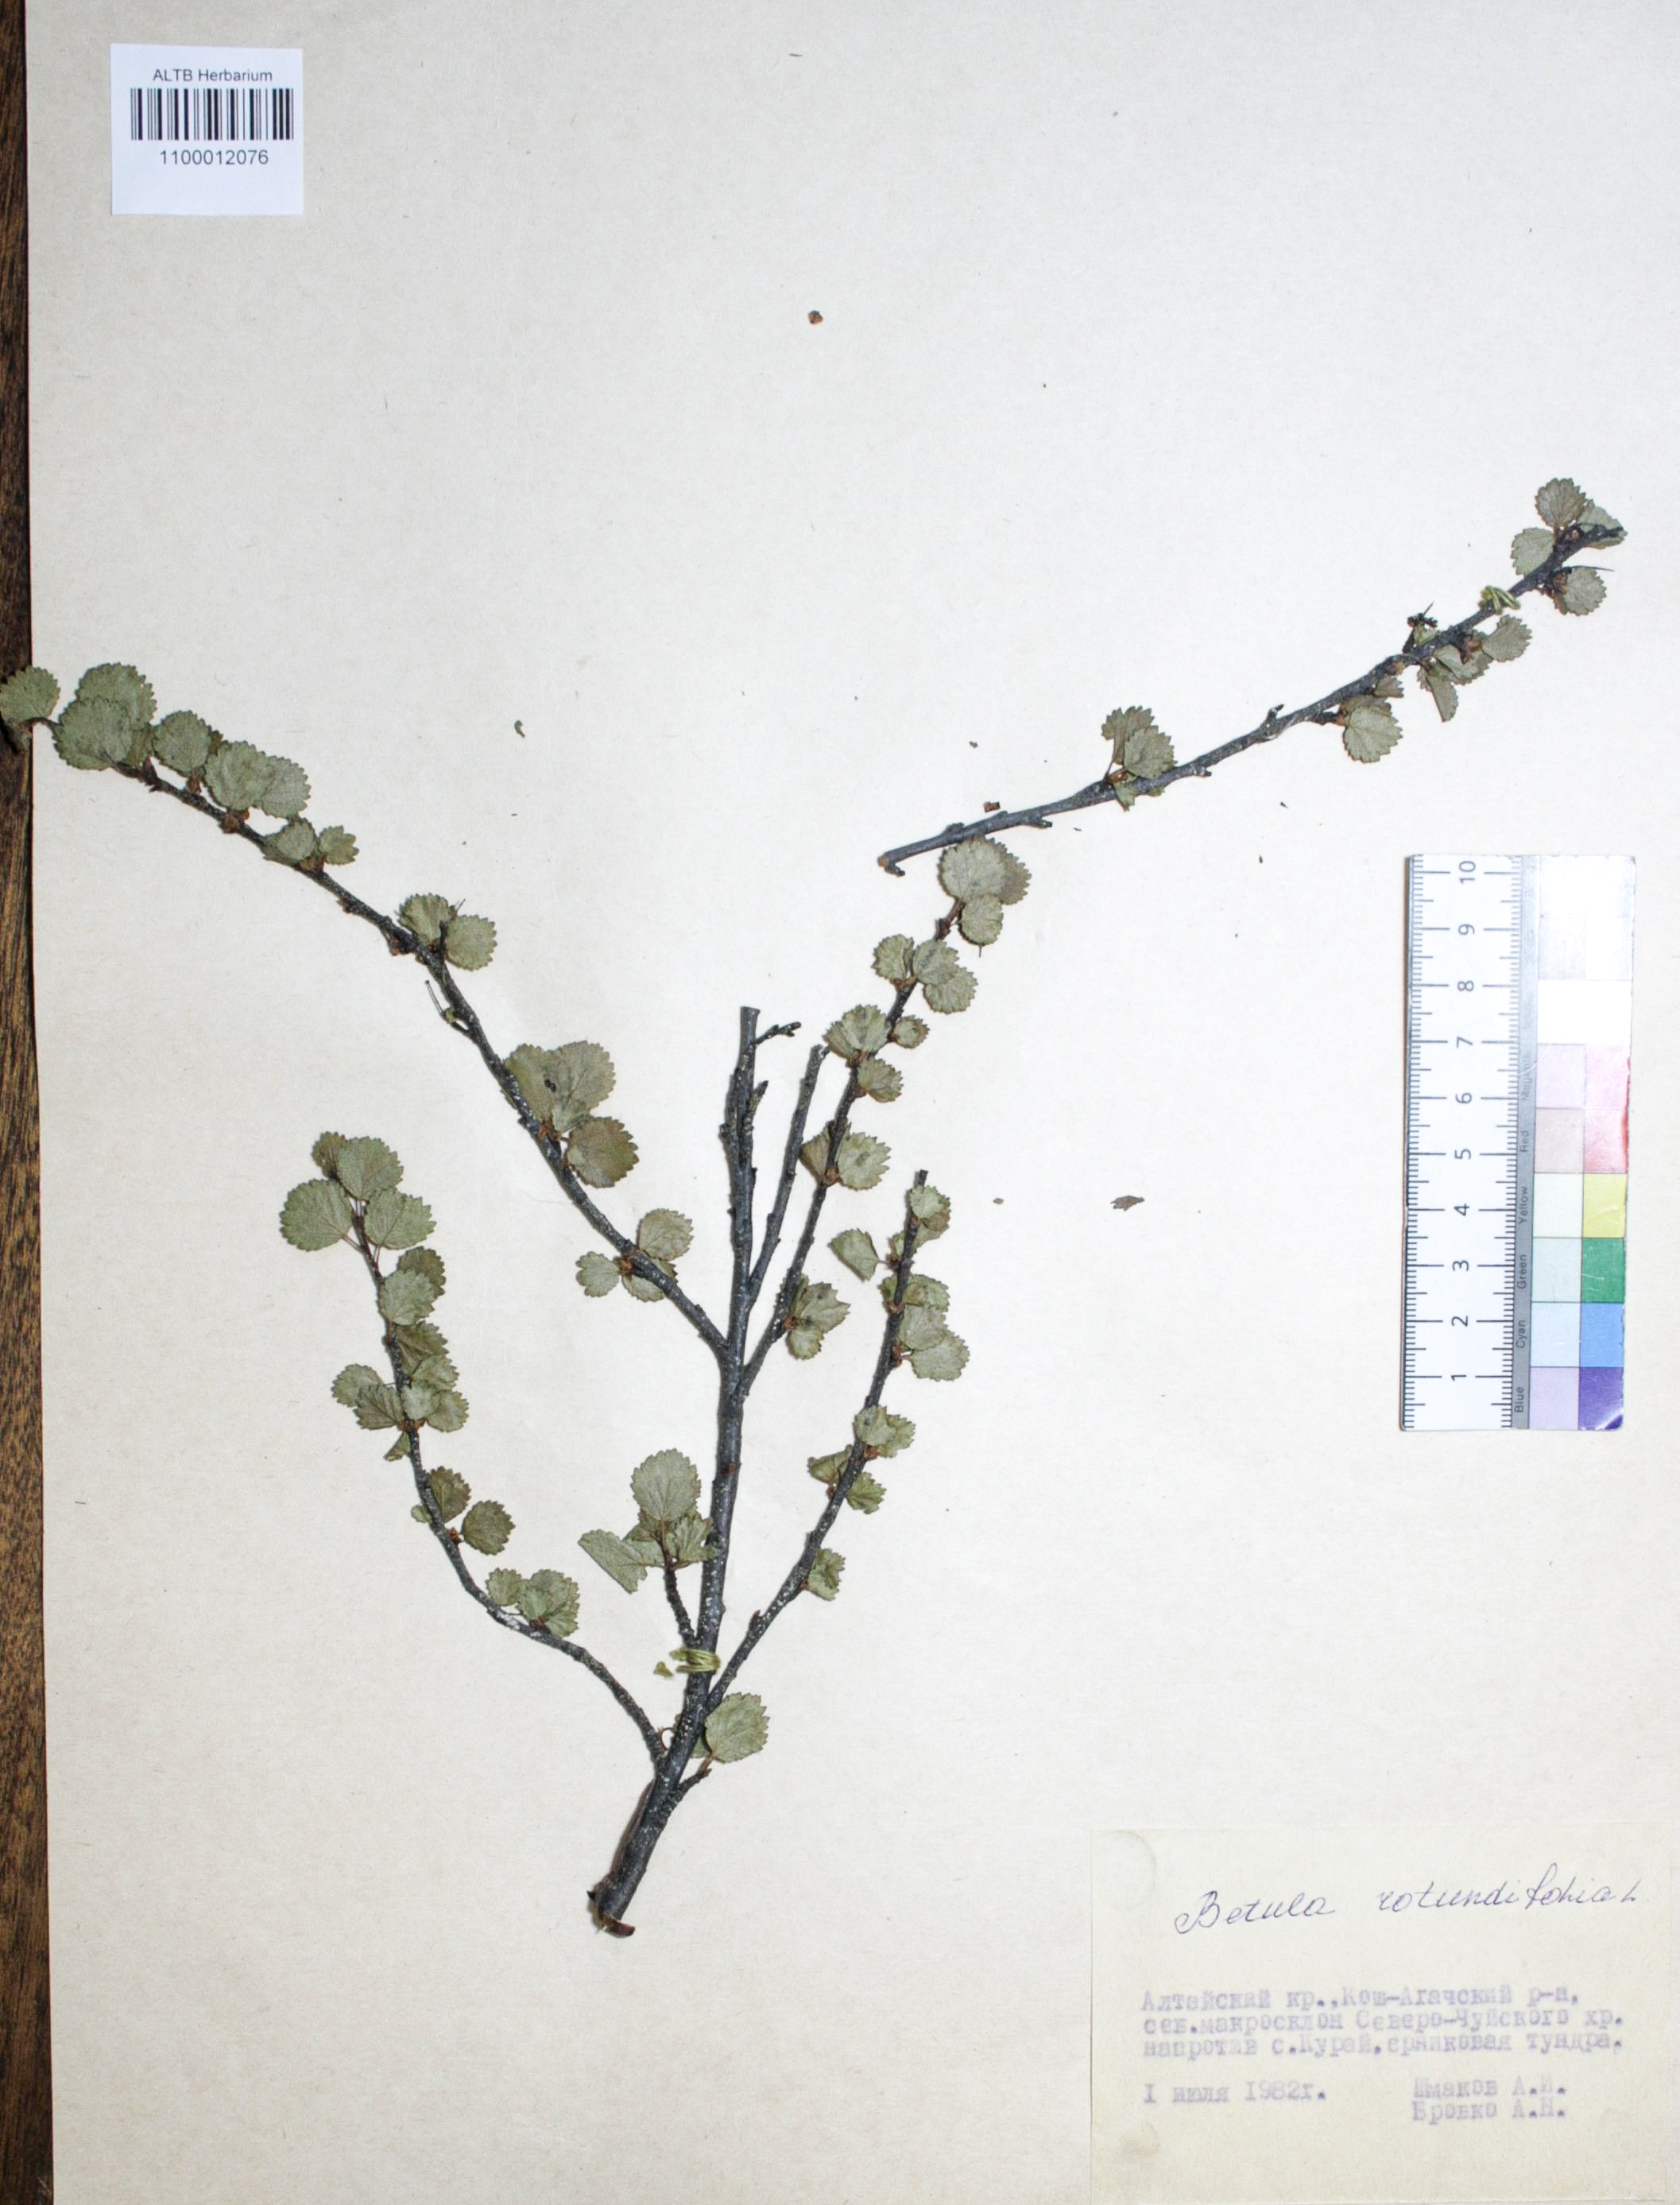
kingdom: Plantae
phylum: Tracheophyta
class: Magnoliopsida
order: Fagales
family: Betulaceae
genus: Betula
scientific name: Betula glandulosa
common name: Dwarf birch
